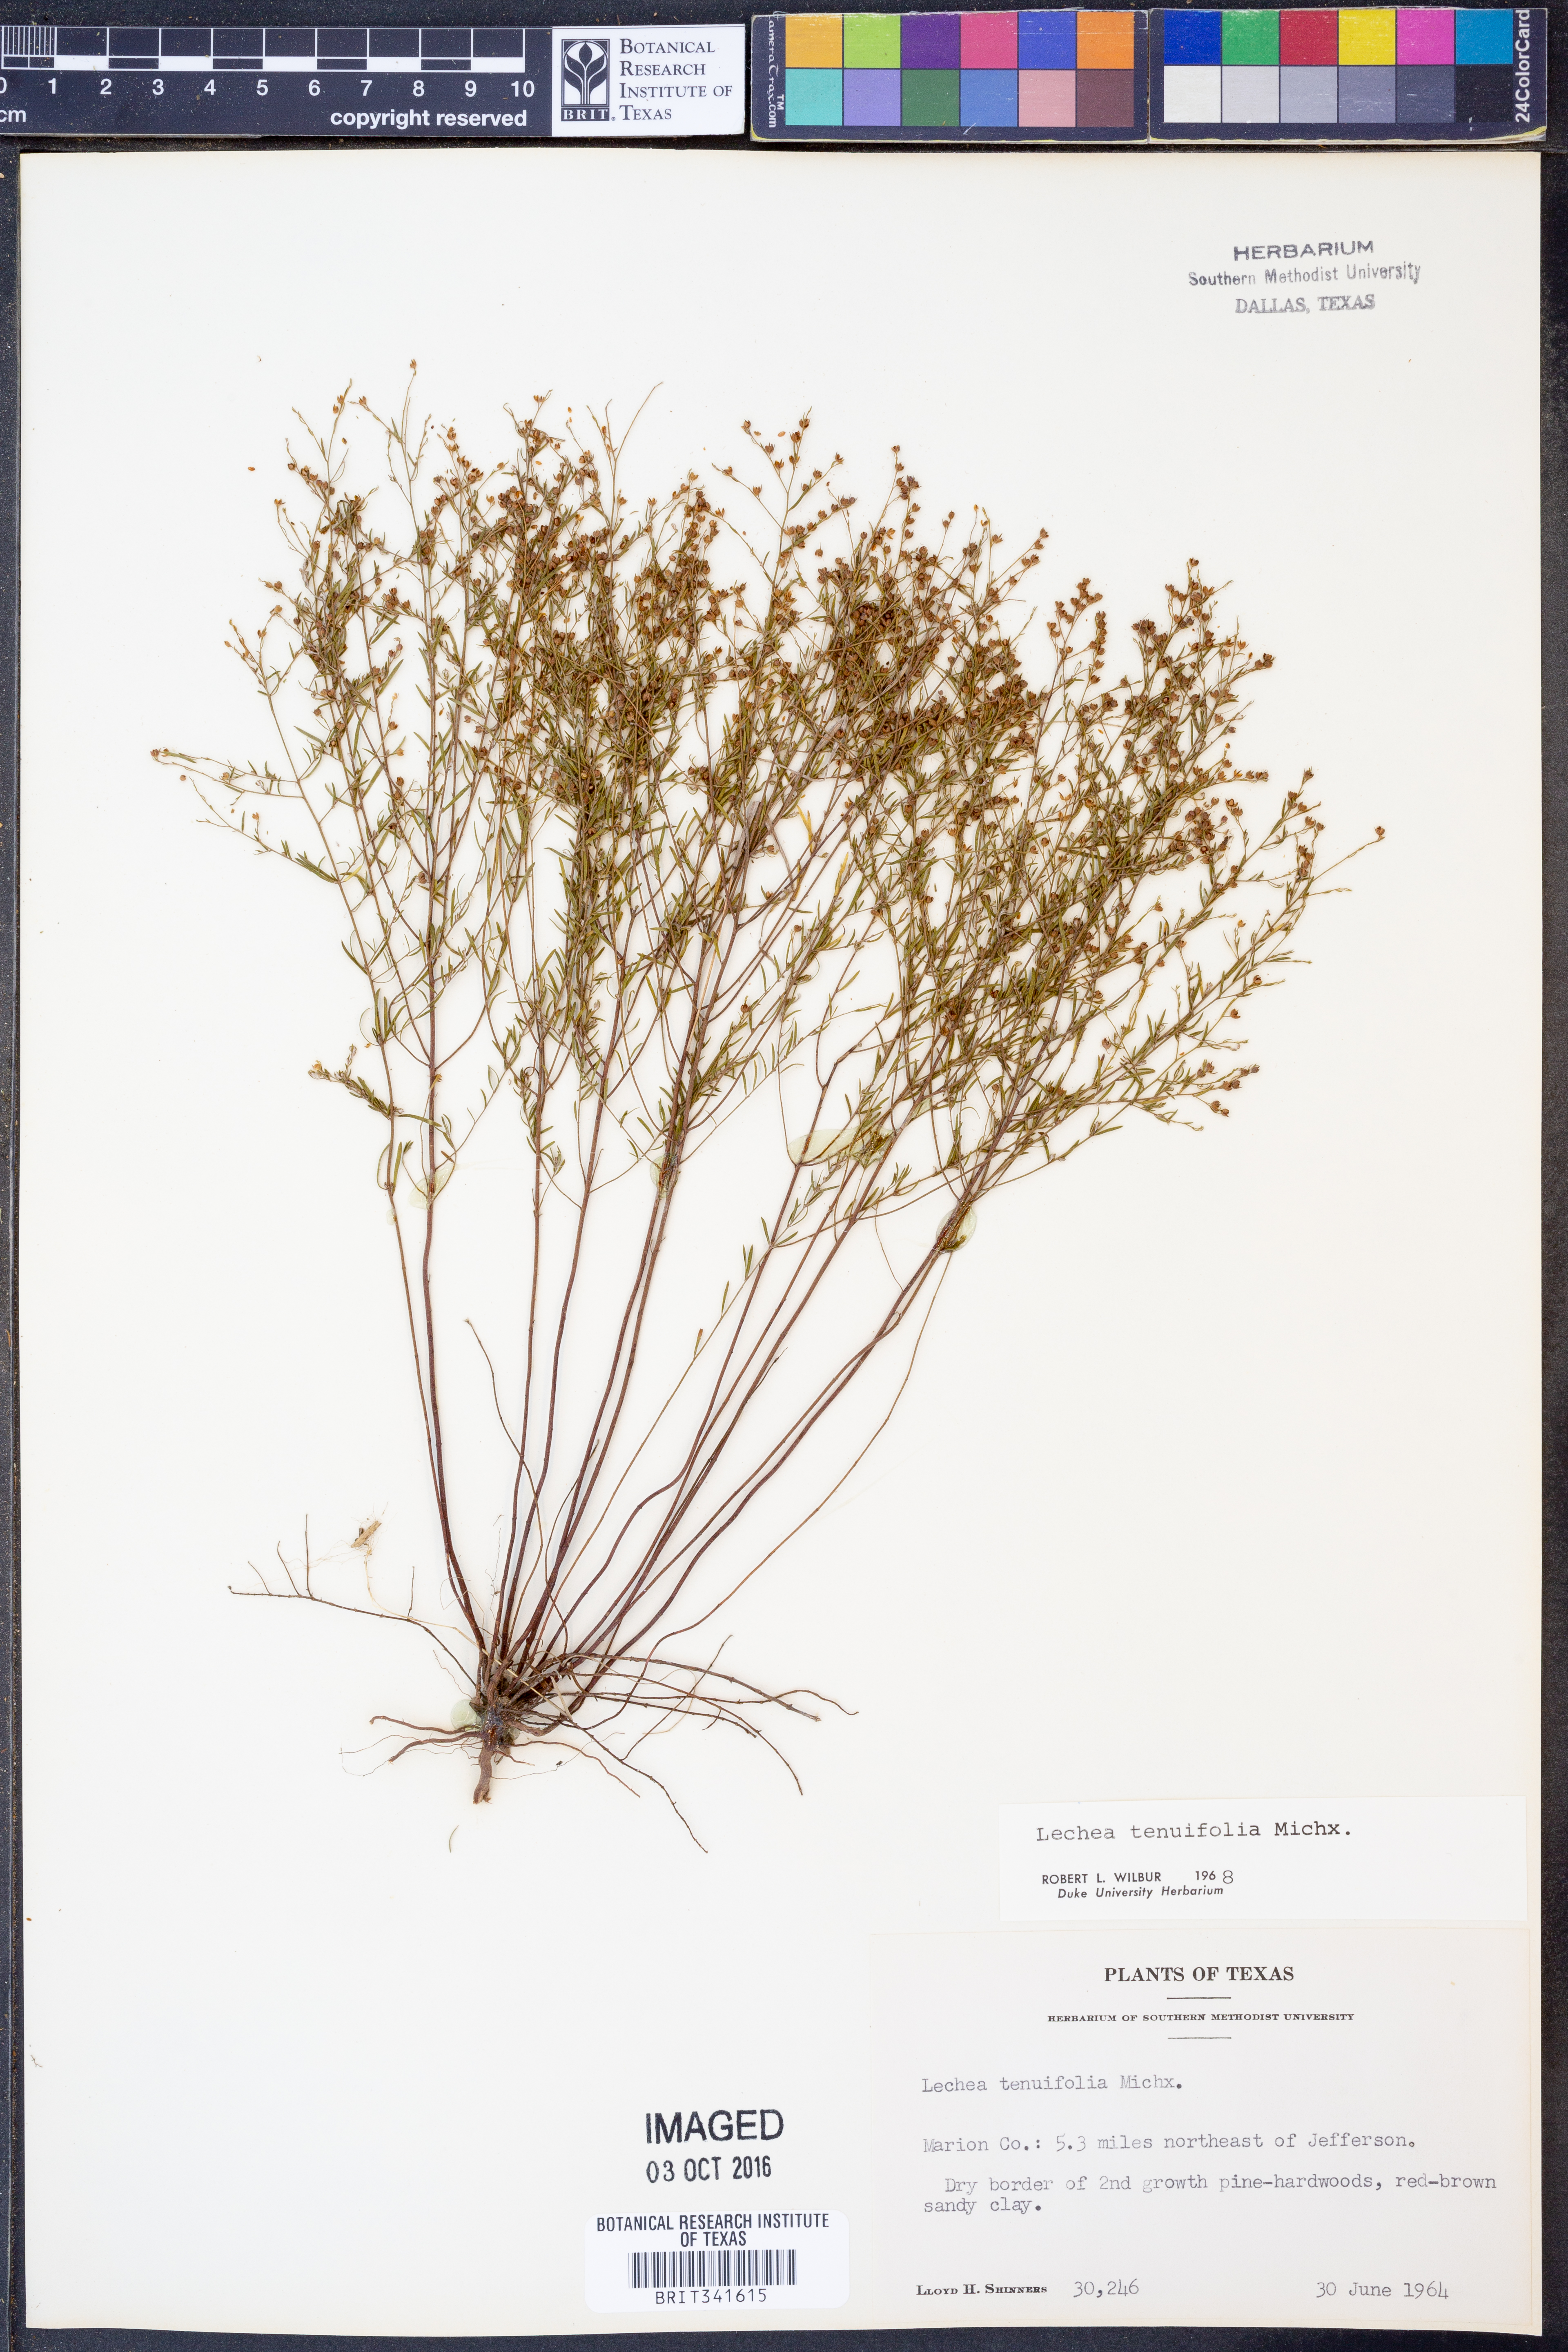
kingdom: Plantae
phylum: Tracheophyta
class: Magnoliopsida
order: Malvales
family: Cistaceae
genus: Lechea
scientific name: Lechea tenuifolia
